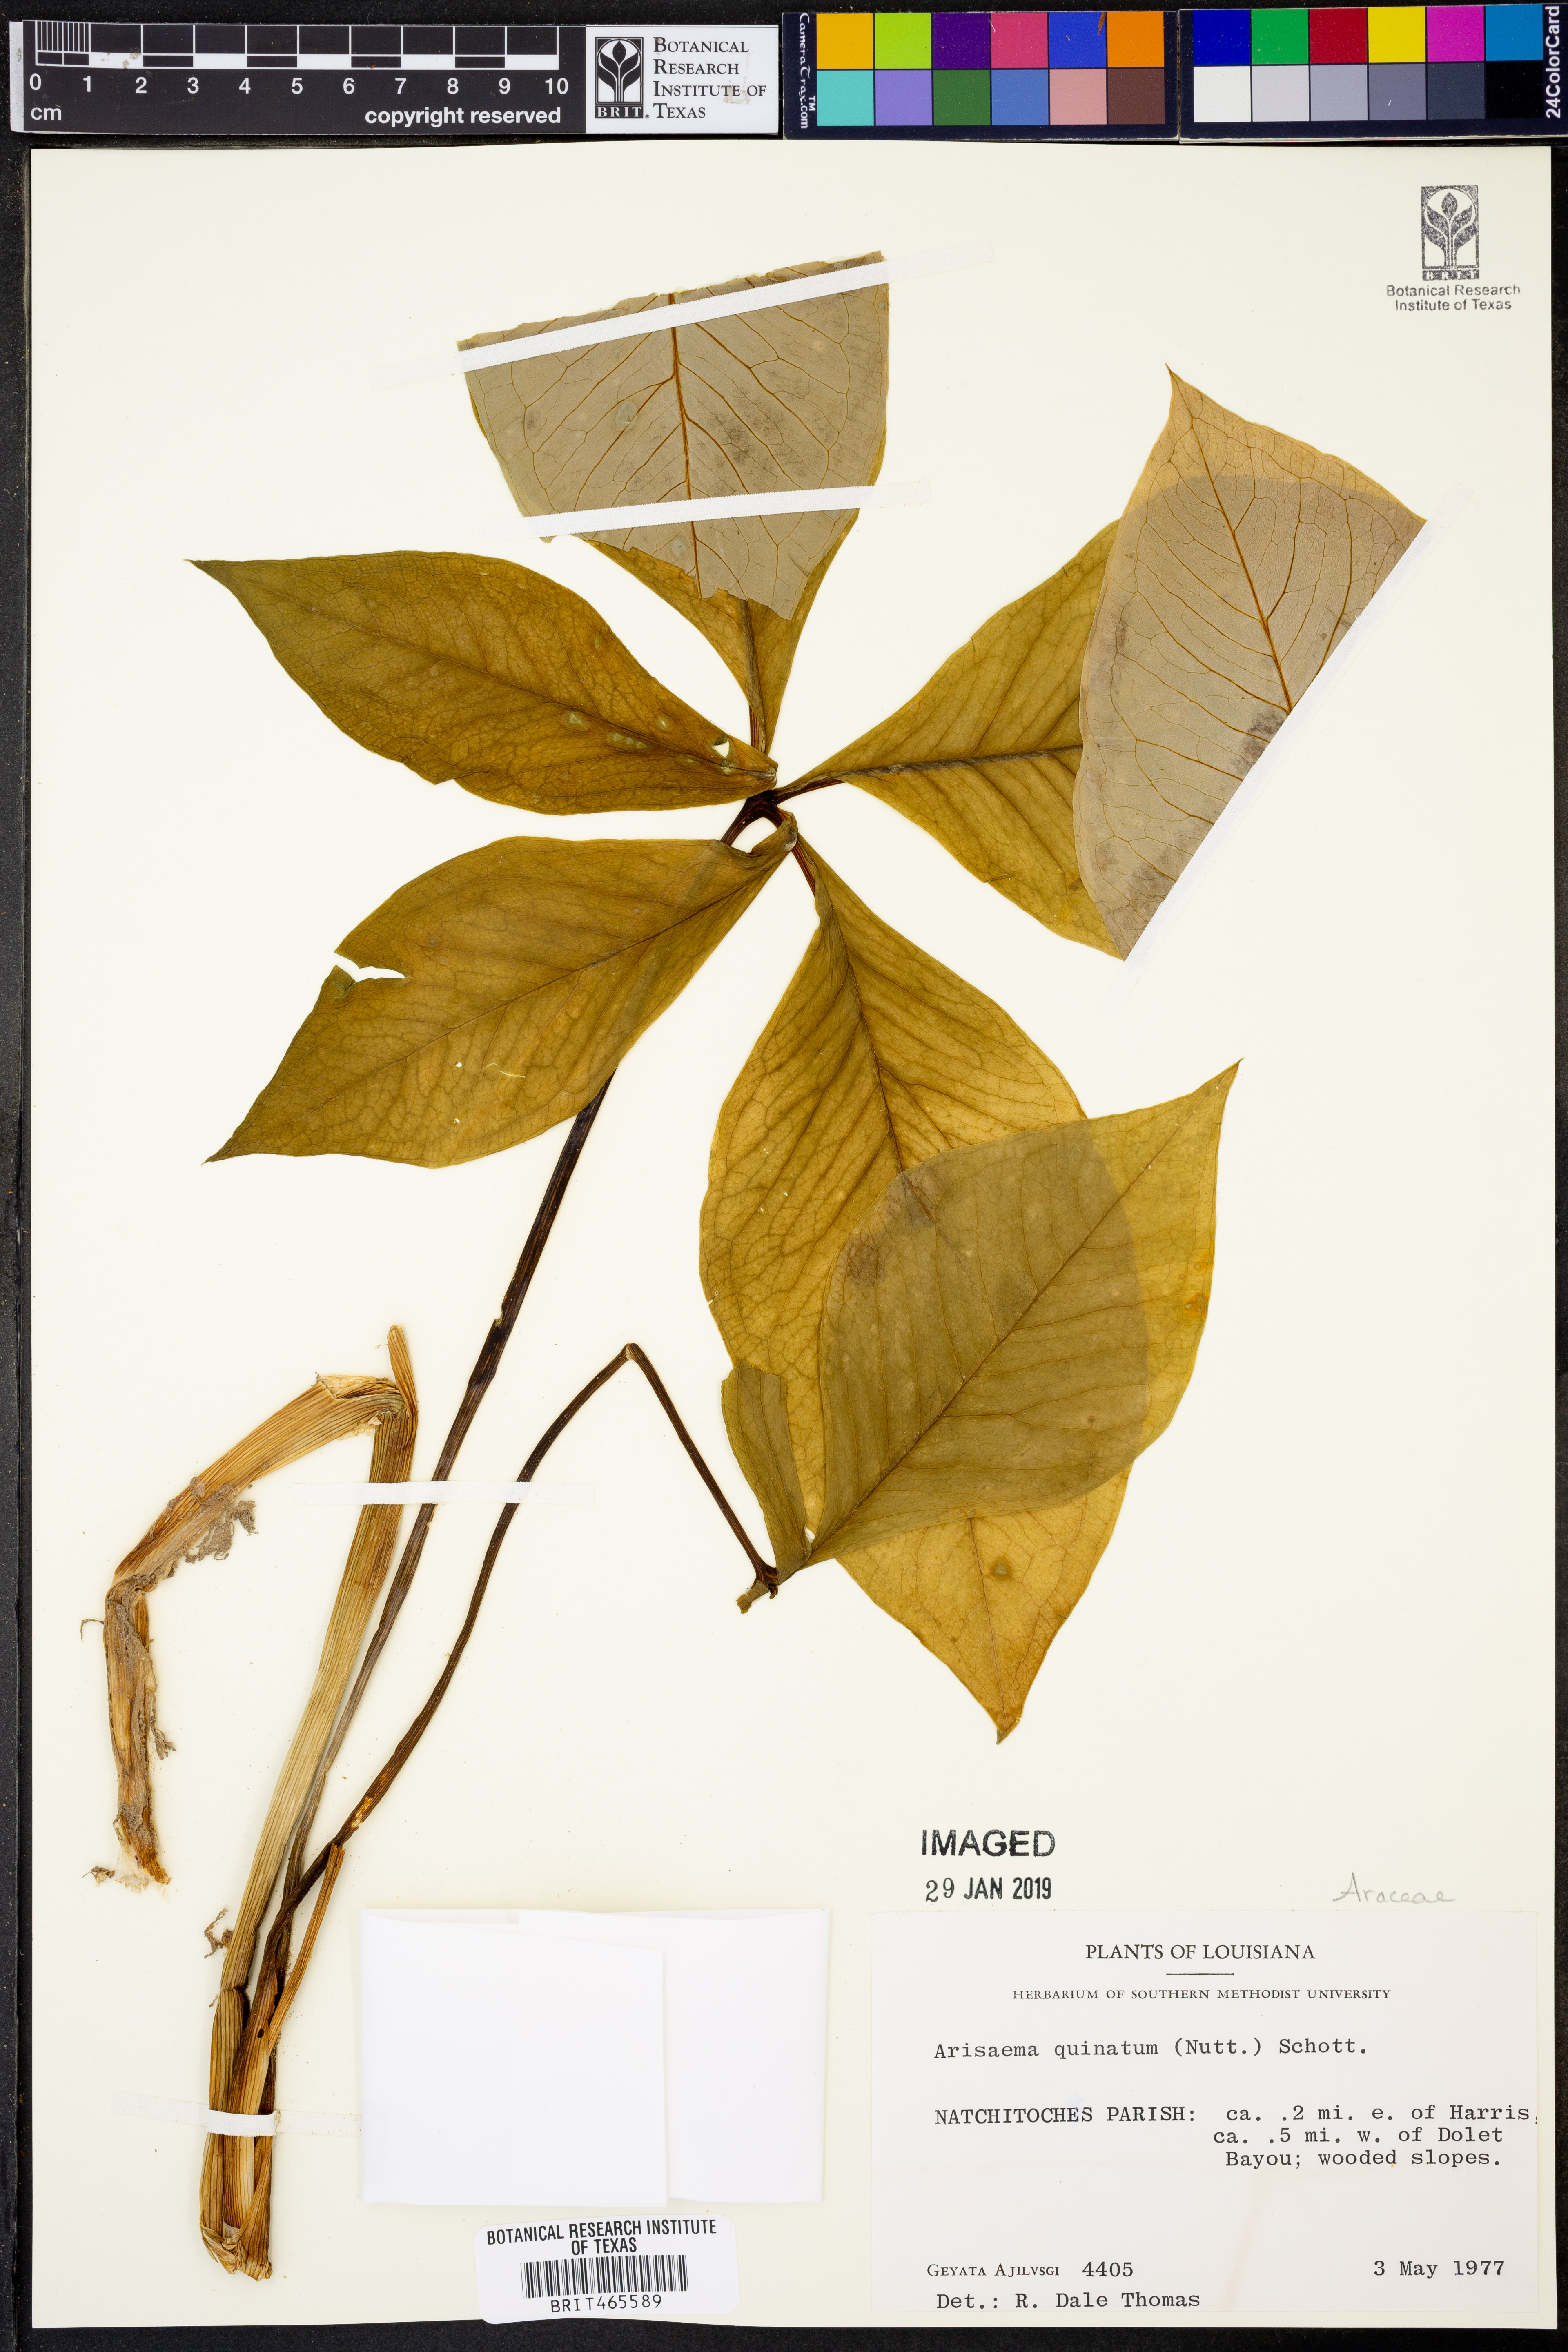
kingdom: Plantae
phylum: Tracheophyta
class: Liliopsida
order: Alismatales
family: Araceae
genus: Arisaema
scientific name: Arisaema quinatum
